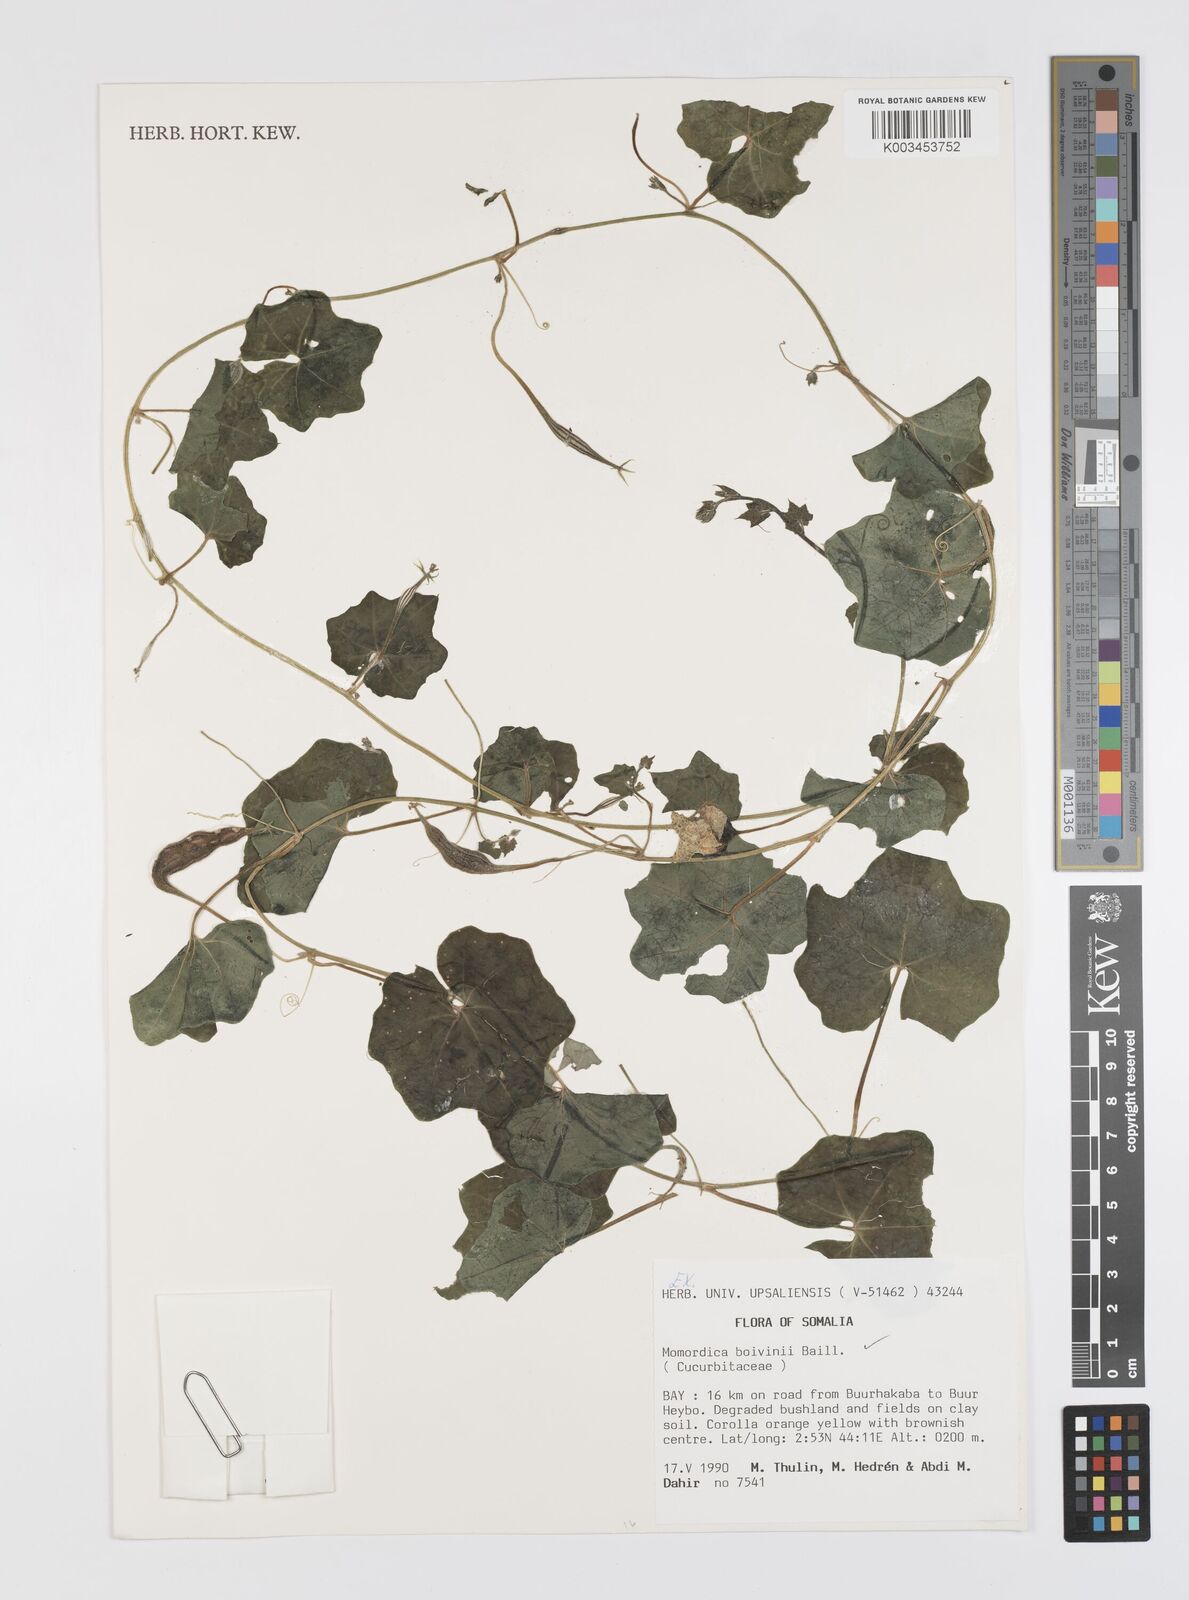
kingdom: Plantae
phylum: Tracheophyta
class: Magnoliopsida
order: Cucurbitales
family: Cucurbitaceae
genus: Momordica
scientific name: Momordica boivinii
